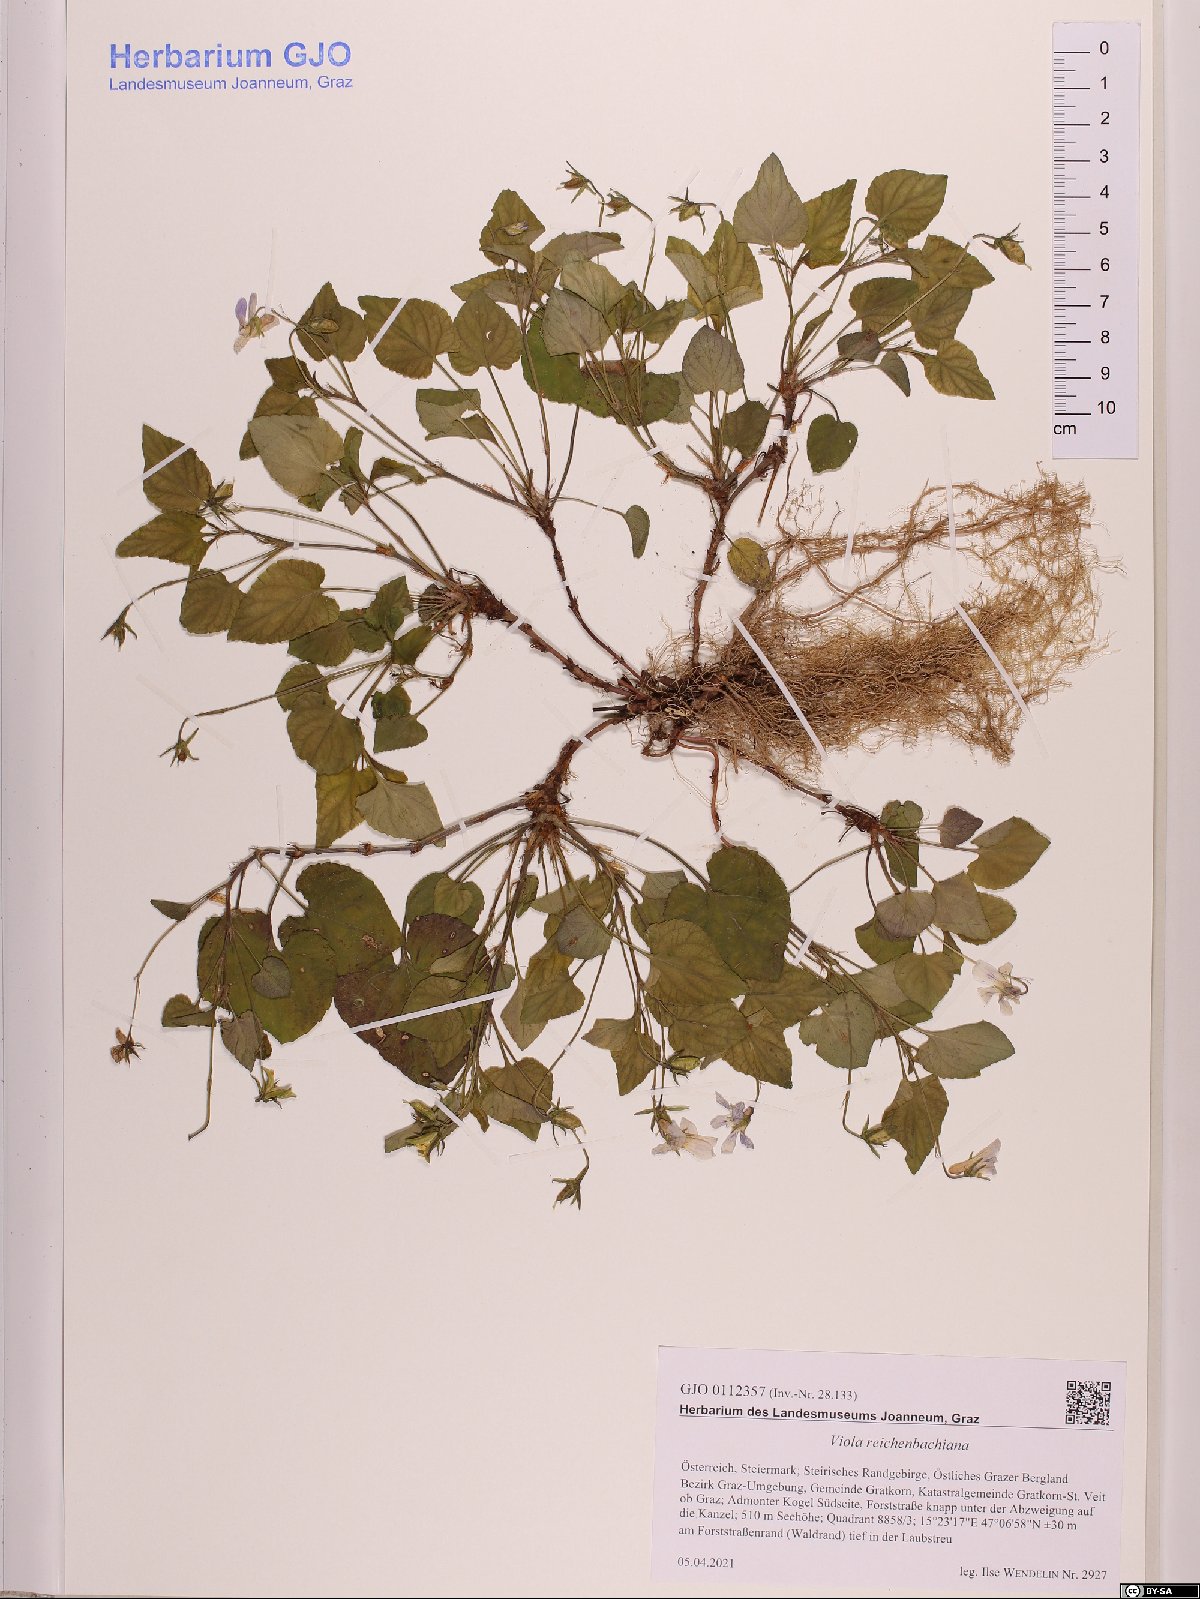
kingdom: Plantae
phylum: Tracheophyta
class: Magnoliopsida
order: Malpighiales
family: Violaceae
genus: Viola
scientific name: Viola reichenbachiana
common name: Early dog-violet
